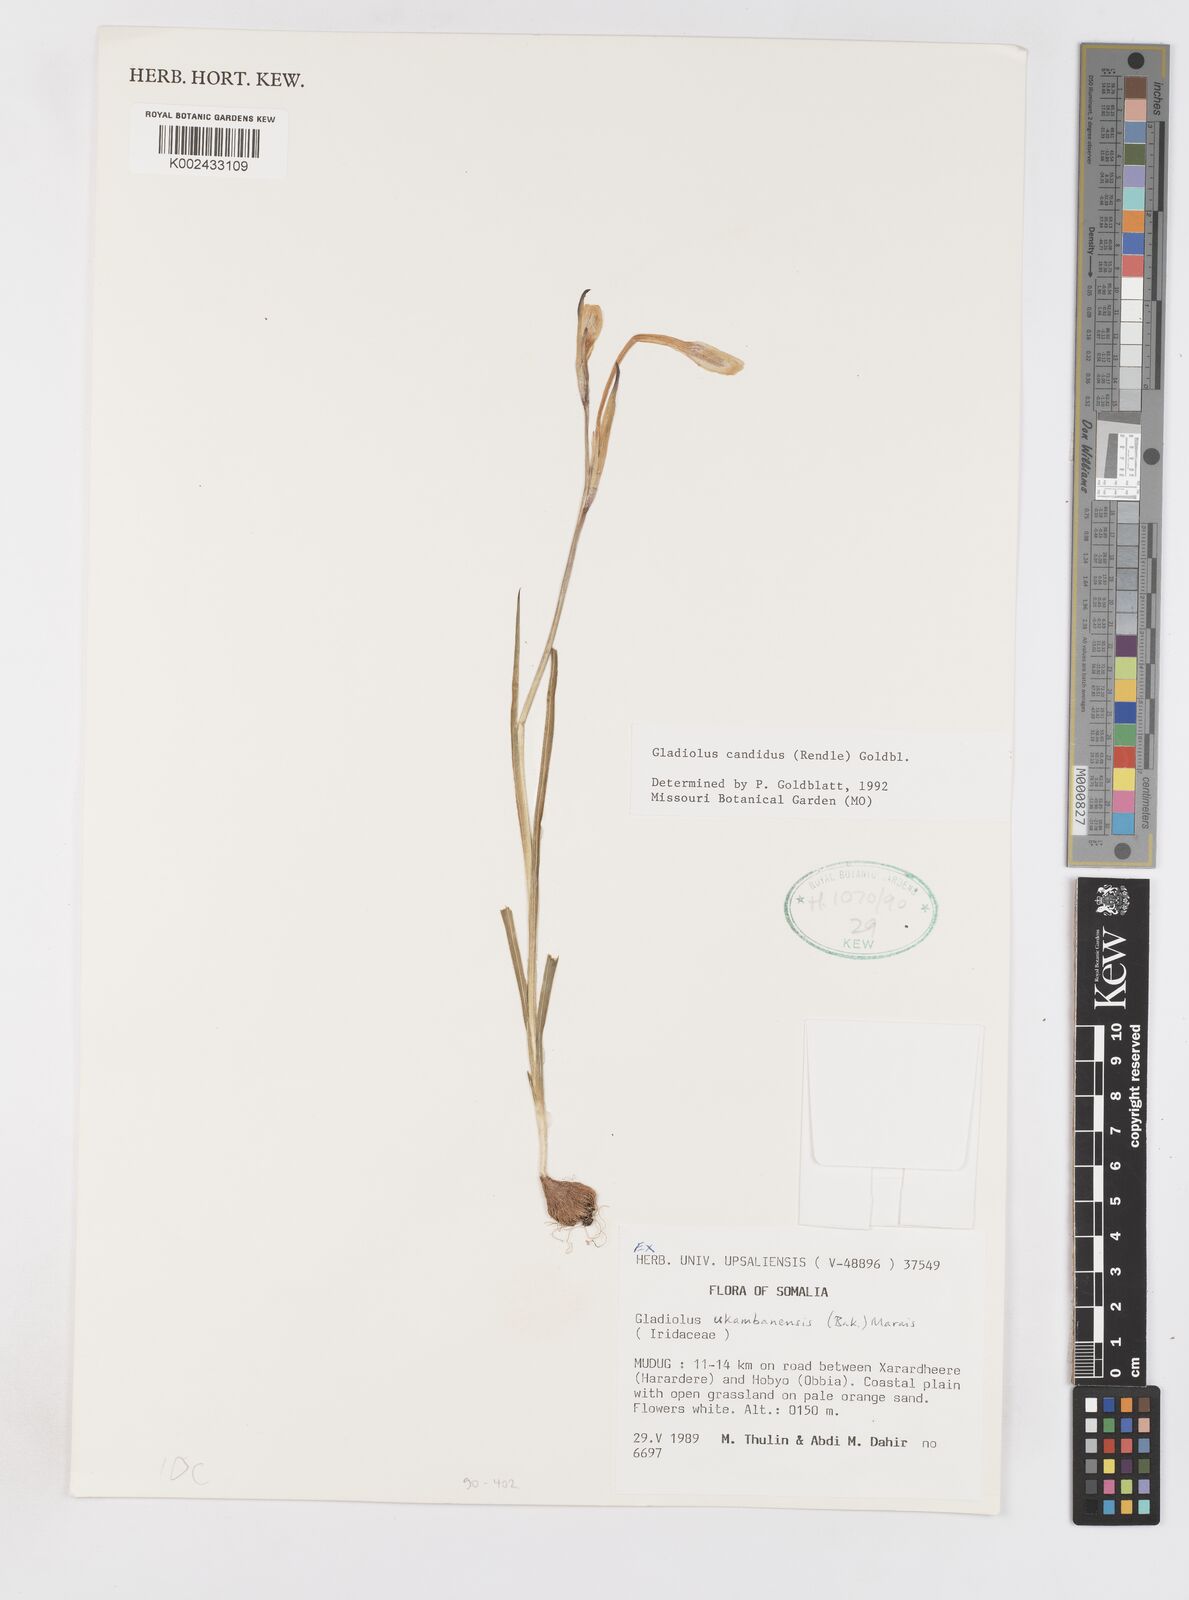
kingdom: Plantae
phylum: Tracheophyta
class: Liliopsida
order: Asparagales
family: Iridaceae
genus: Gladiolus
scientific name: Gladiolus candidus
